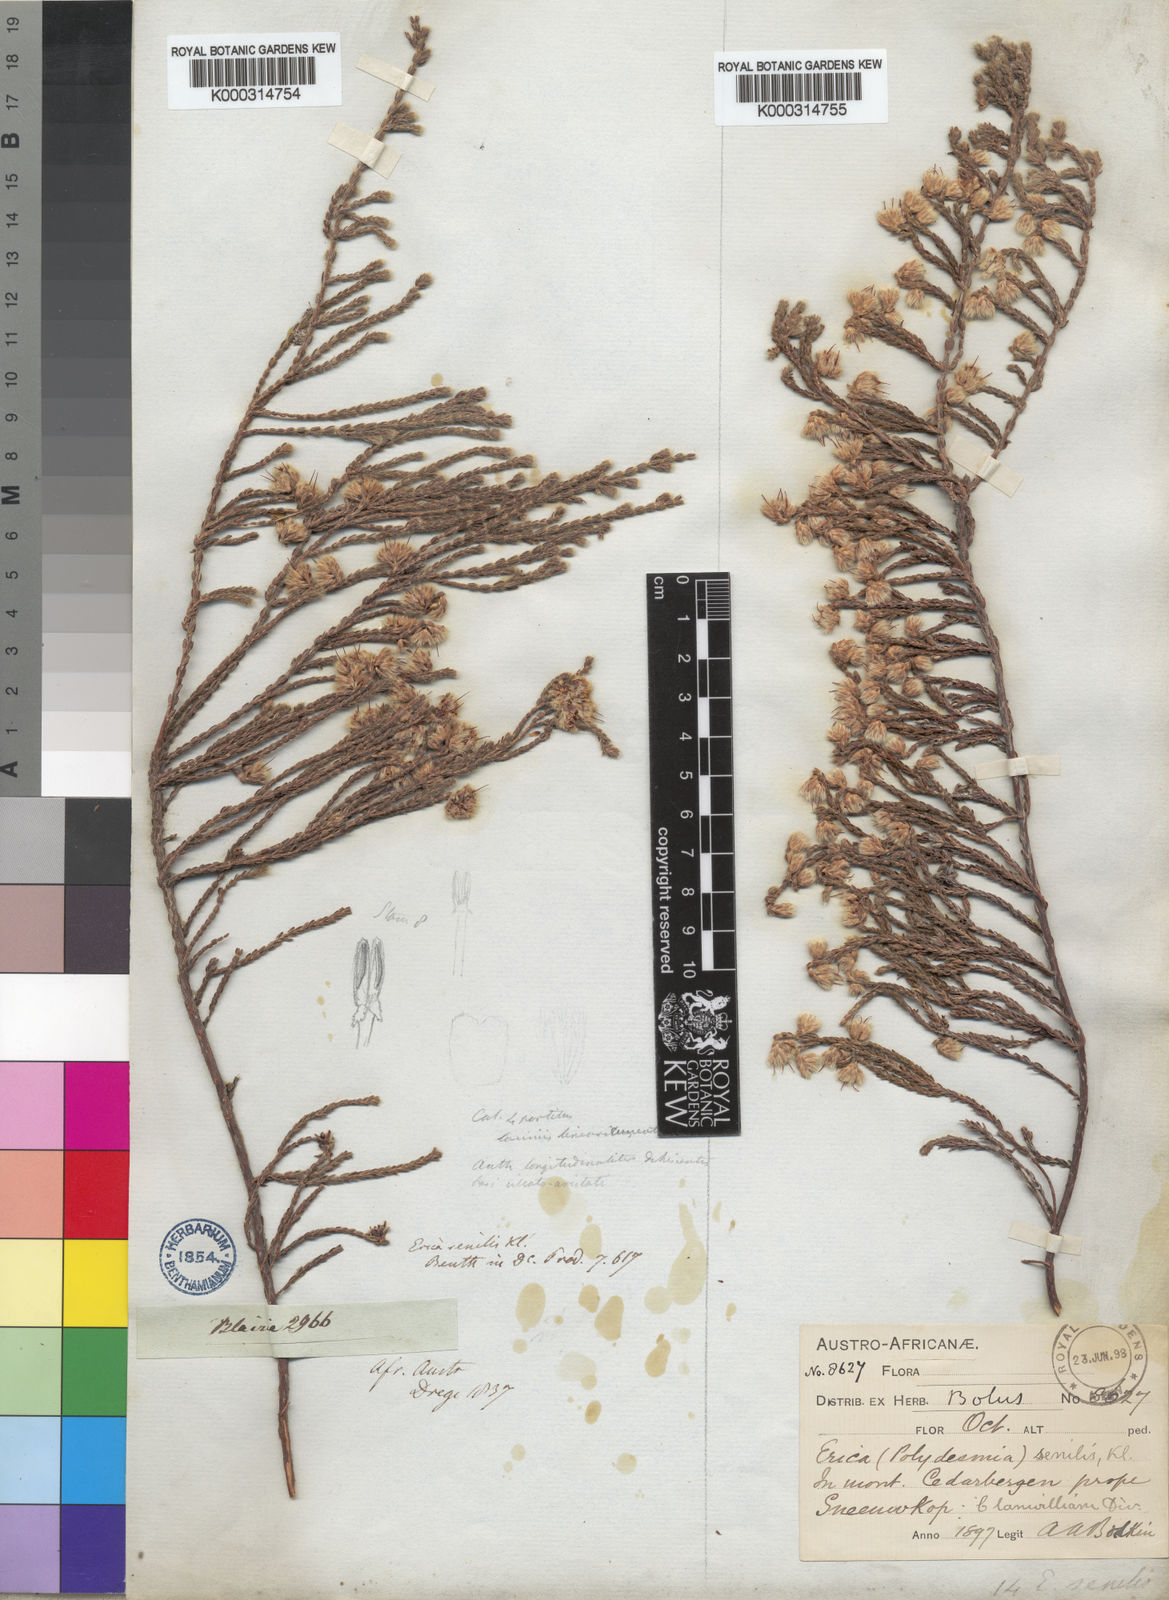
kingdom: Plantae
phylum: Tracheophyta
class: Magnoliopsida
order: Ericales
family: Ericaceae
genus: Erica
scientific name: Erica senilis
